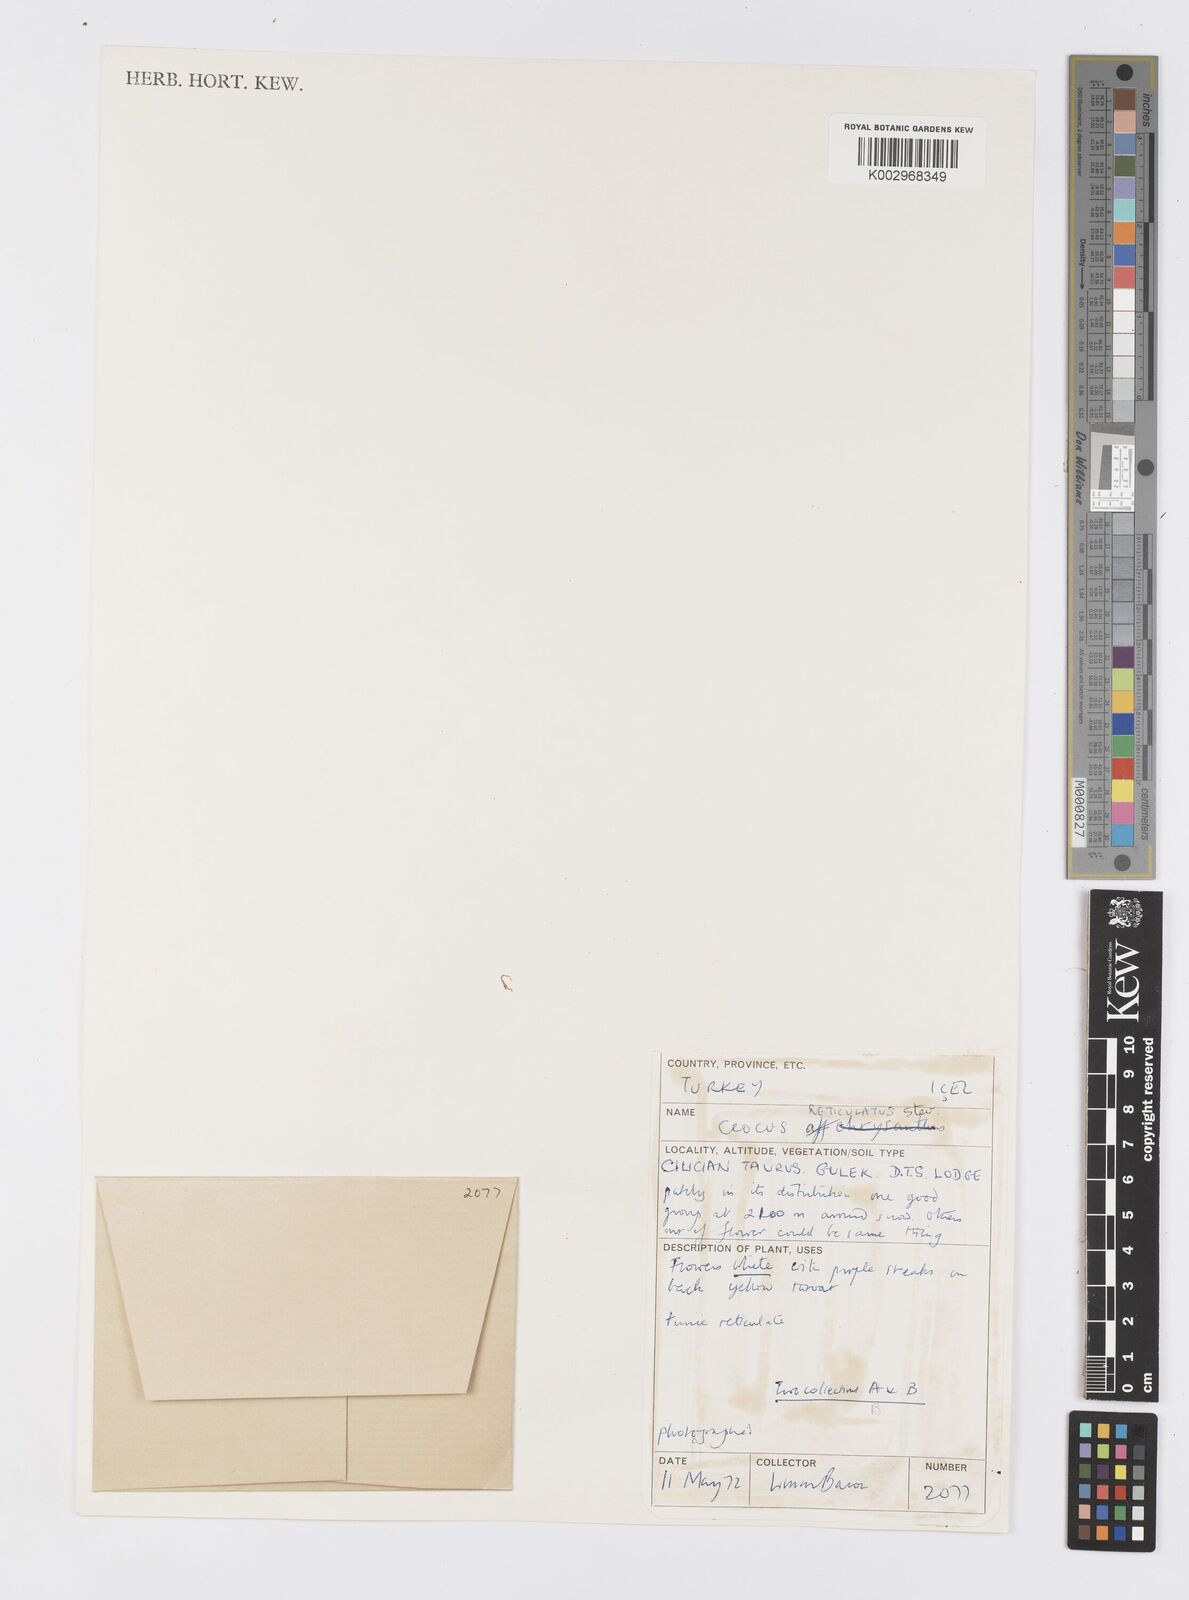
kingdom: Plantae
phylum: Tracheophyta
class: Liliopsida
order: Asparagales
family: Iridaceae
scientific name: Iridaceae
